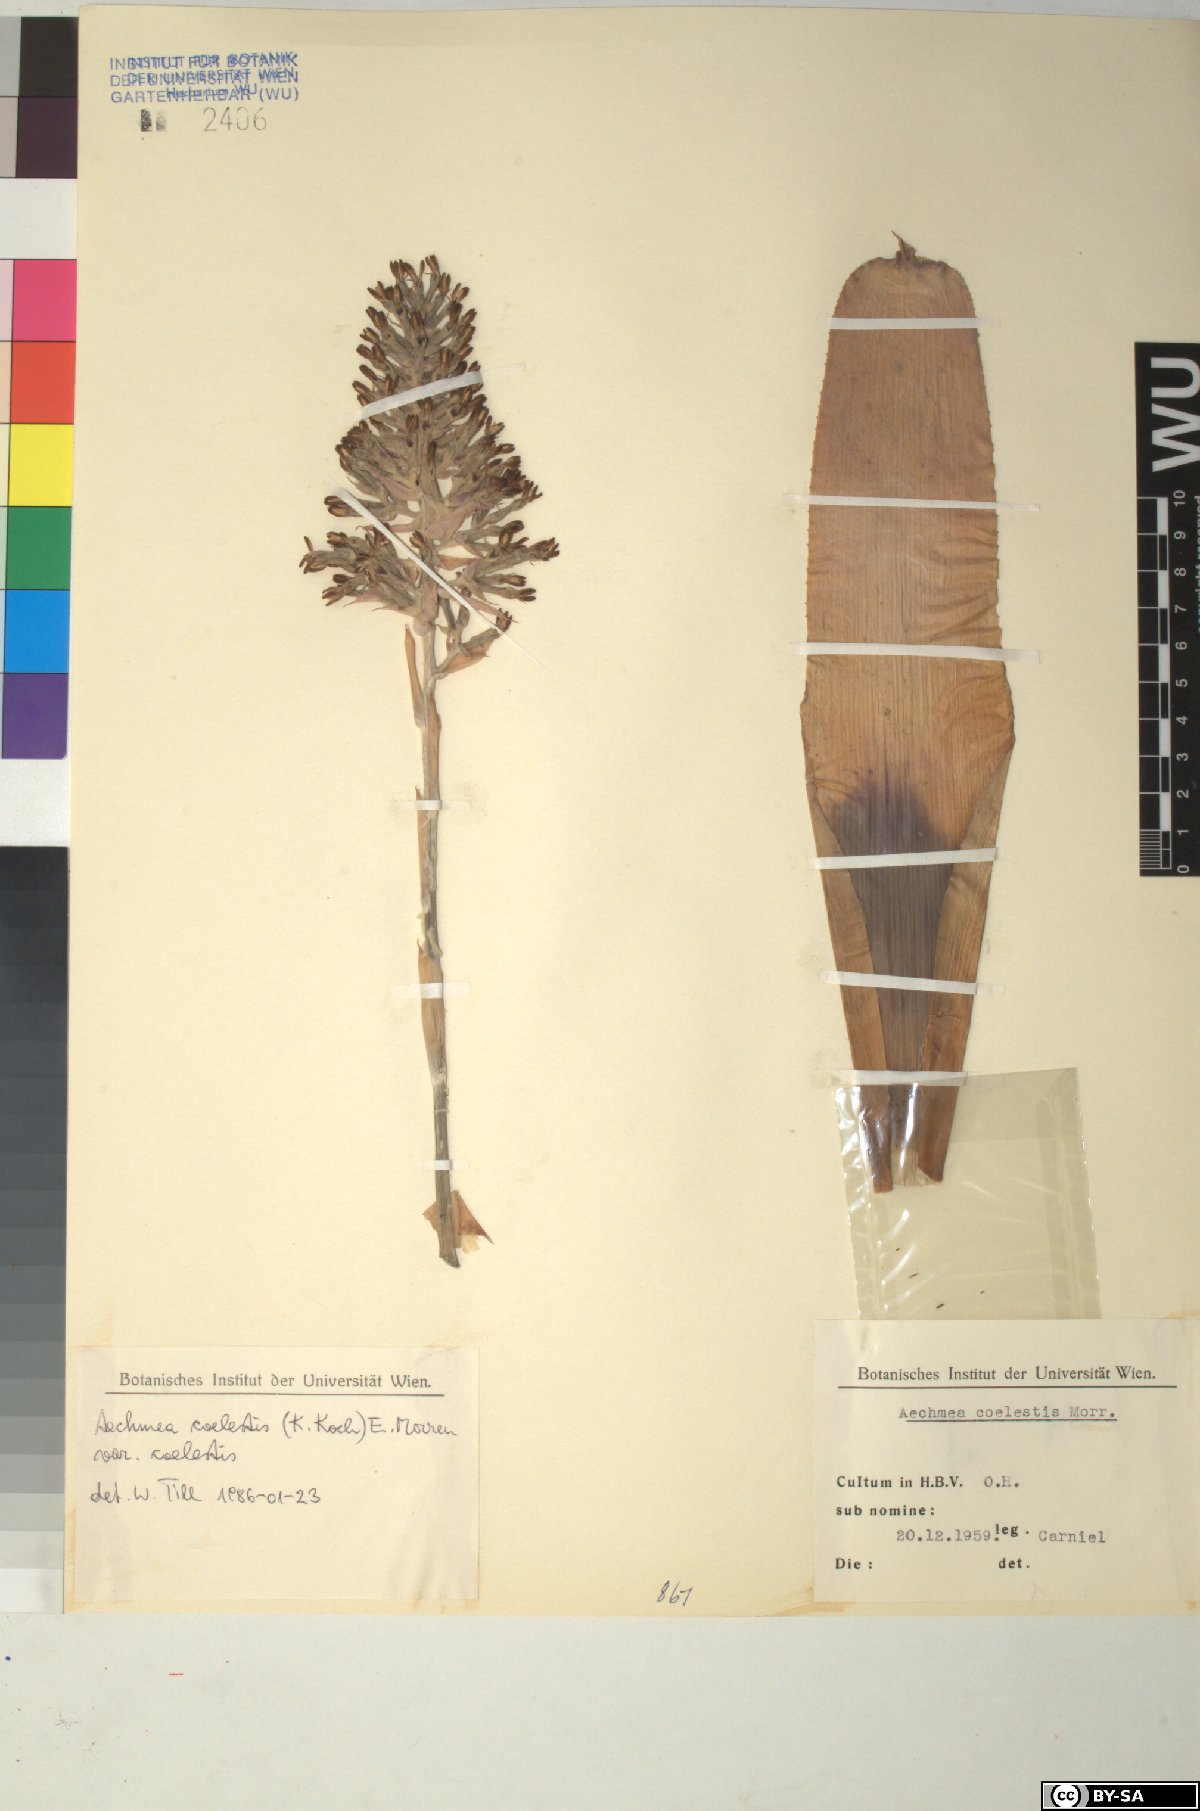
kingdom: Plantae
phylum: Tracheophyta
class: Liliopsida
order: Poales
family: Bromeliaceae
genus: Aechmea
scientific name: Aechmea coelestis
